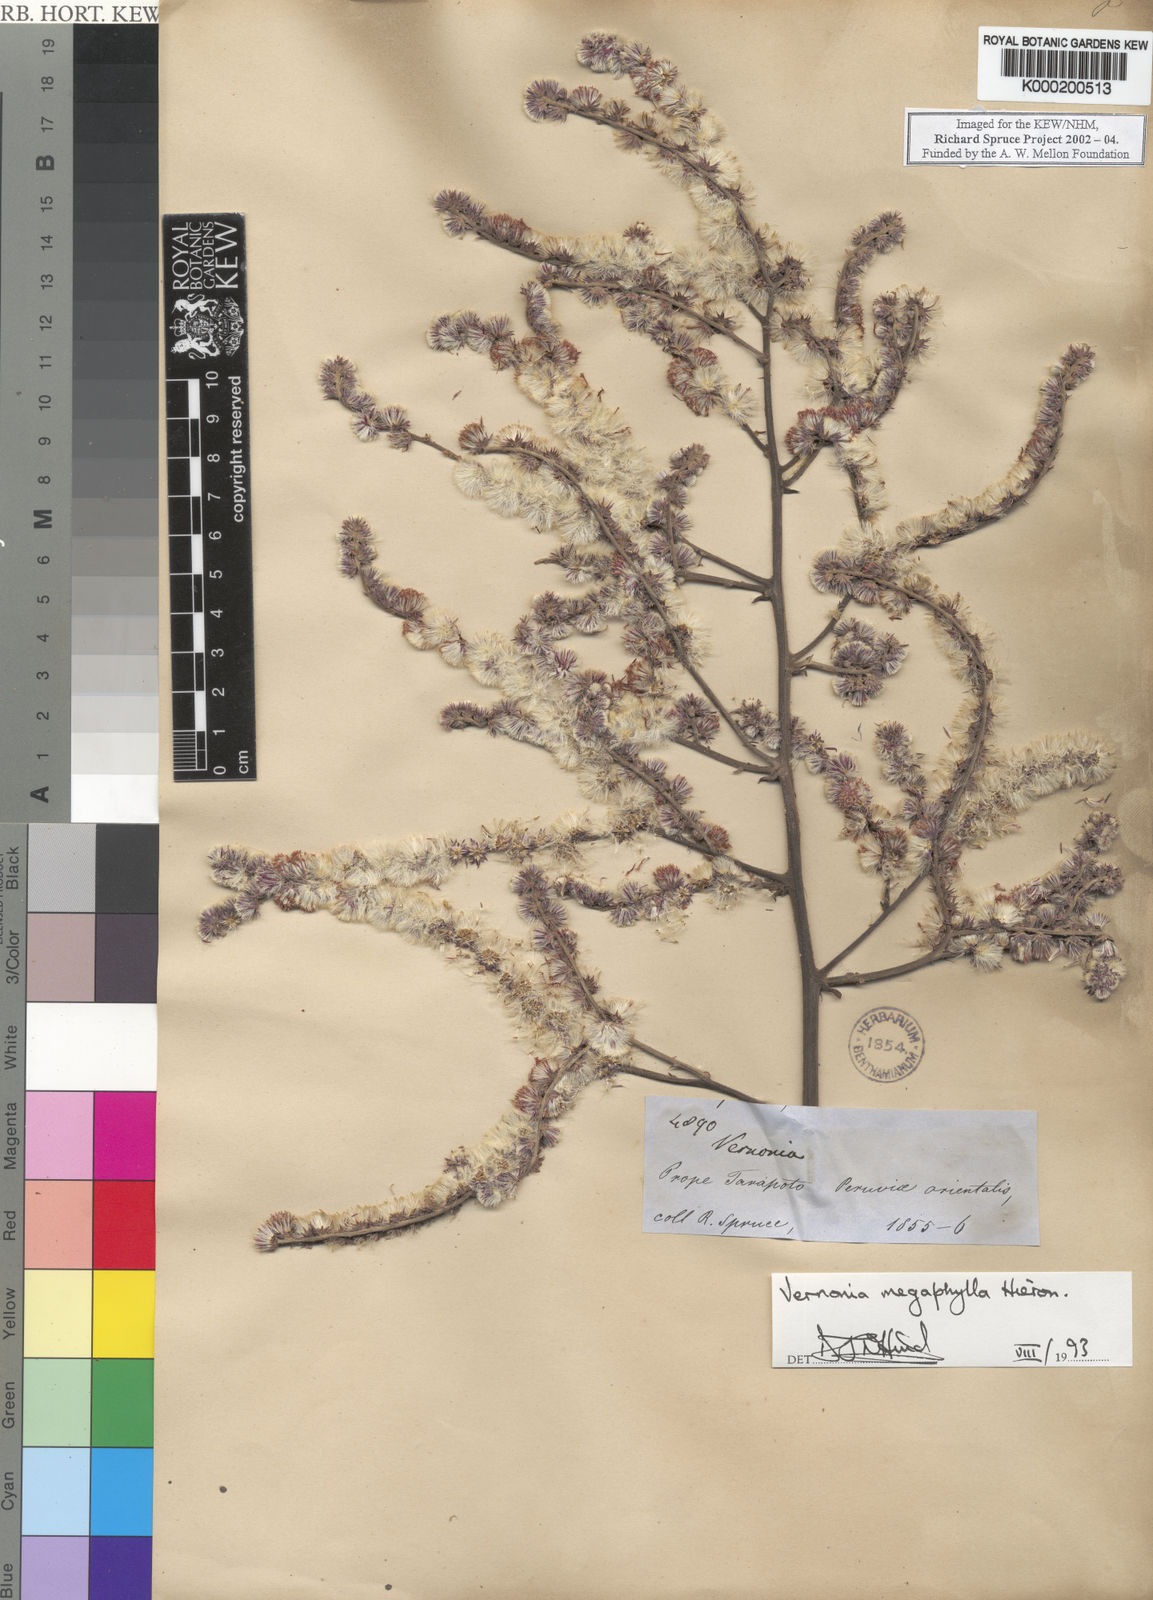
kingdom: Plantae
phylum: Tracheophyta
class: Magnoliopsida
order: Asterales
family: Asteraceae
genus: Eirmocephala
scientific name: Eirmocephala megaphylla
